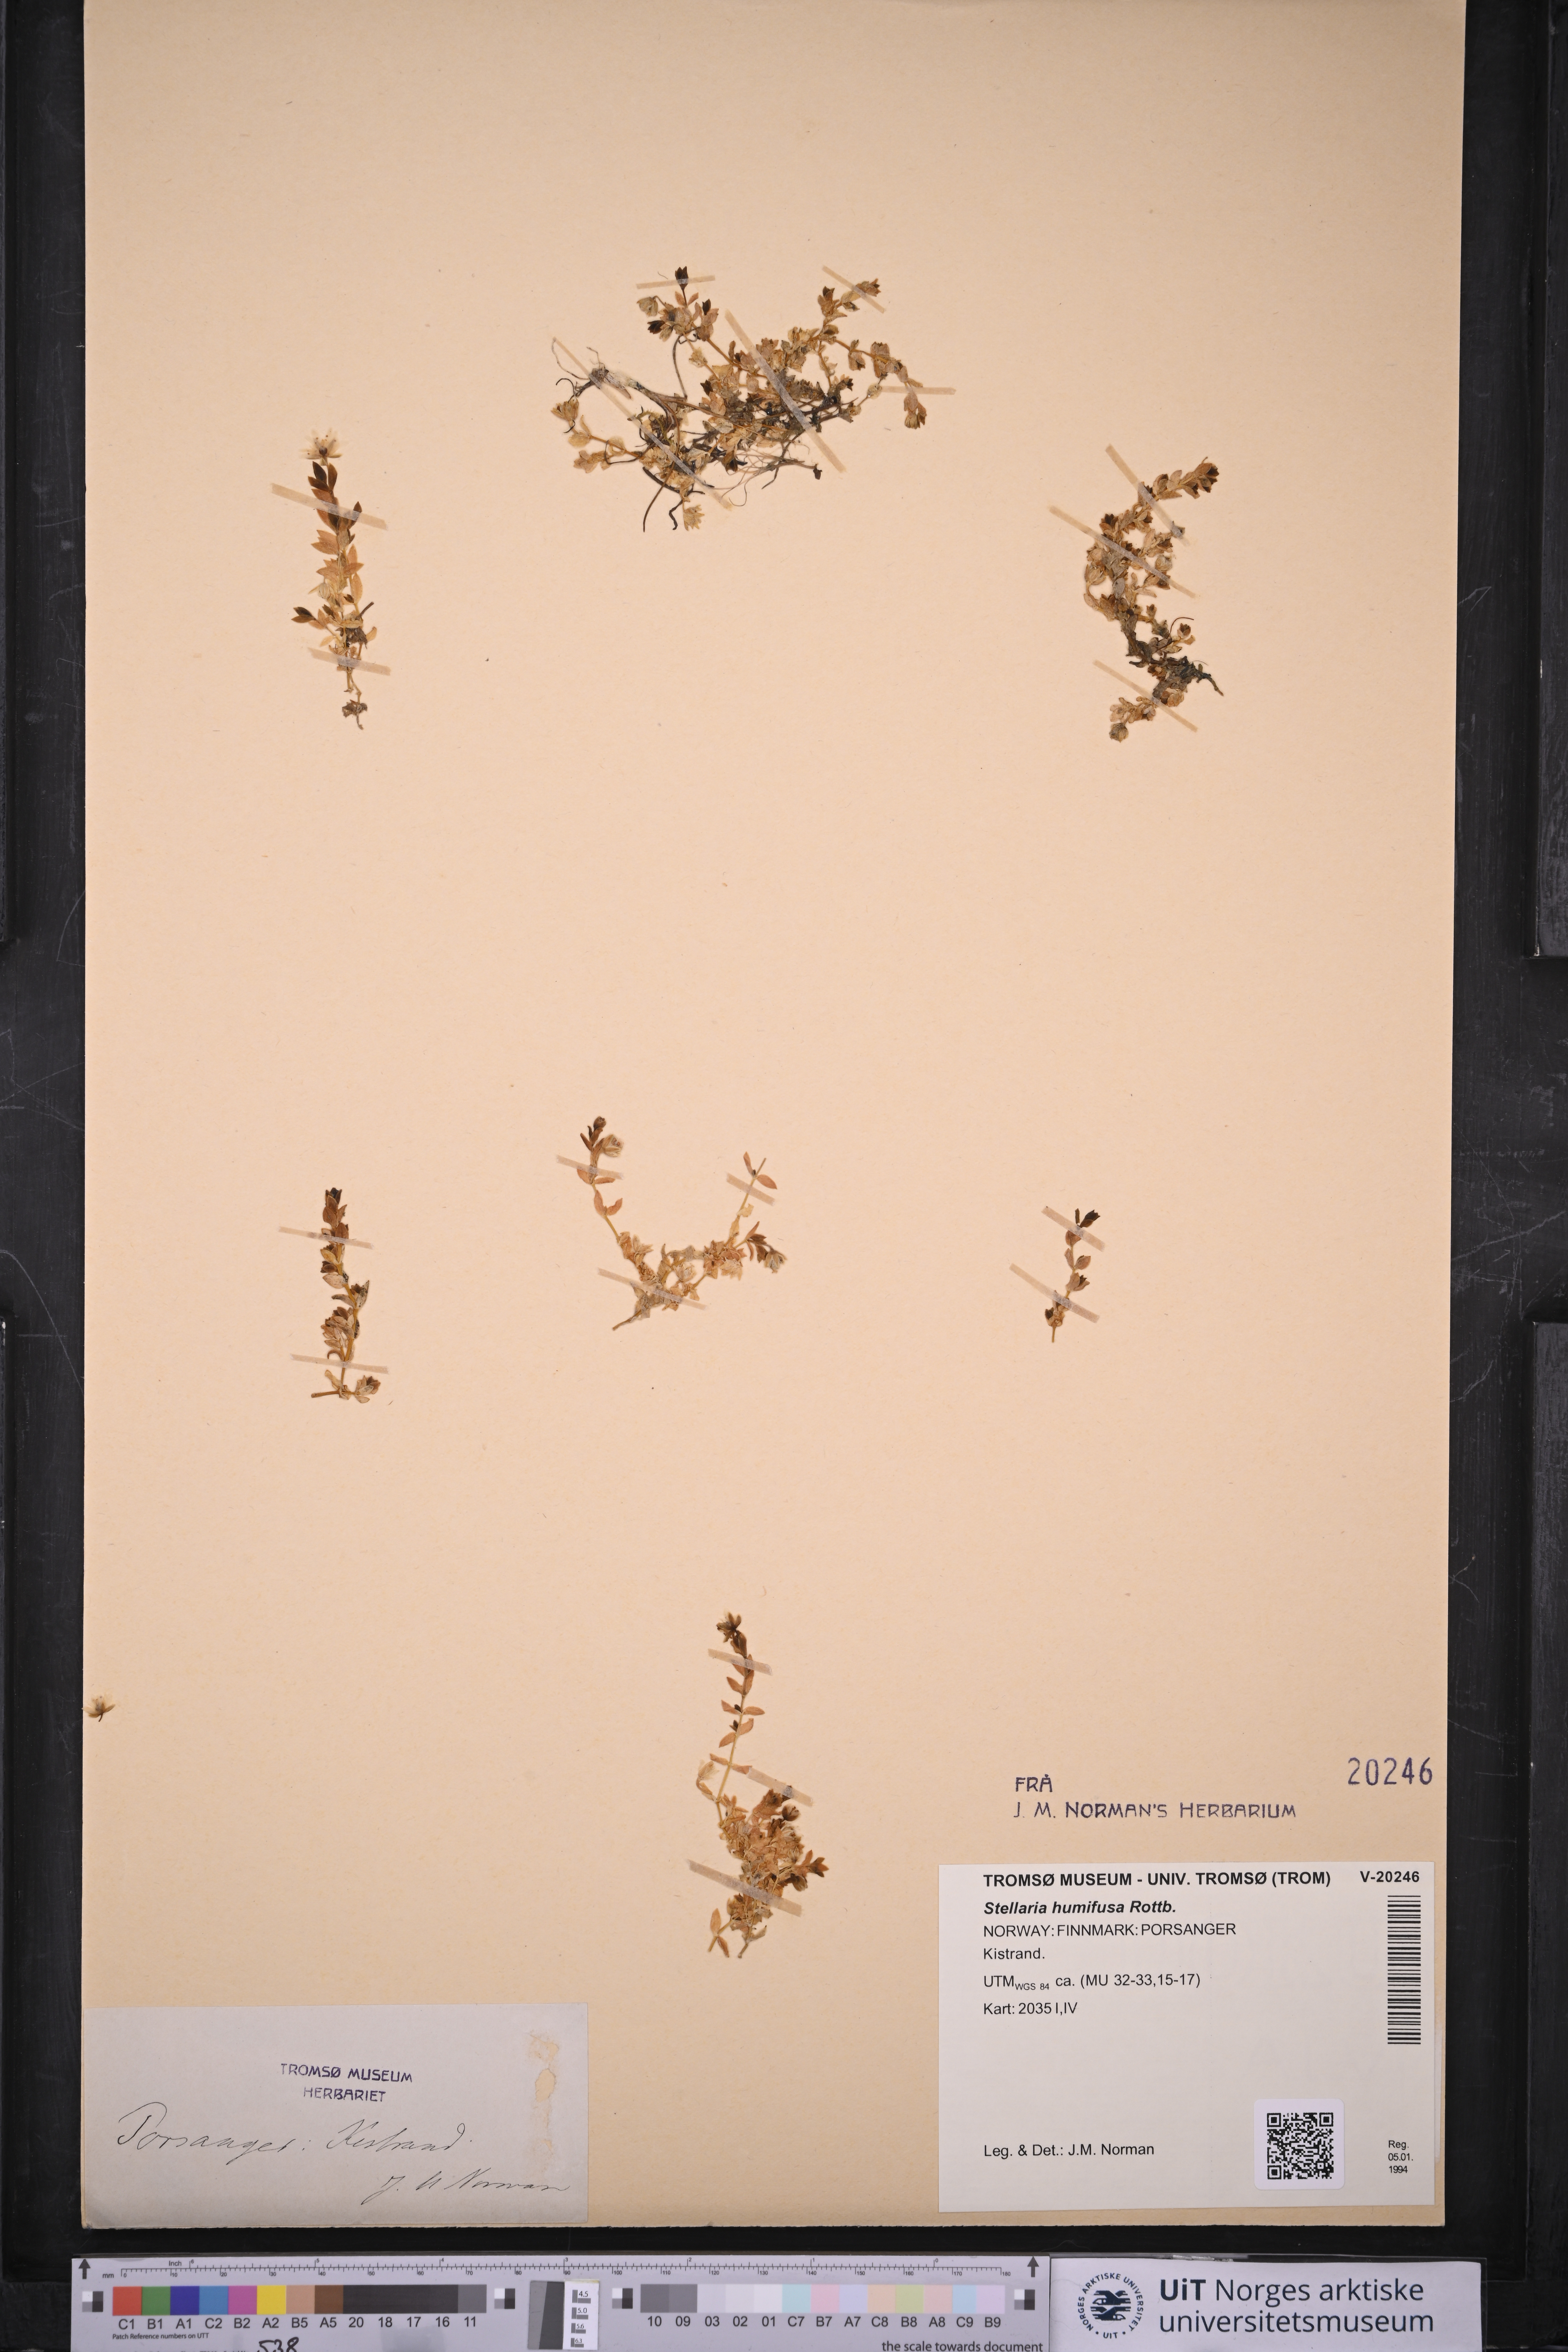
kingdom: Plantae
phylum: Tracheophyta
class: Magnoliopsida
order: Caryophyllales
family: Caryophyllaceae
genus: Stellaria
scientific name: Stellaria humifusa
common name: Creeping starwort
